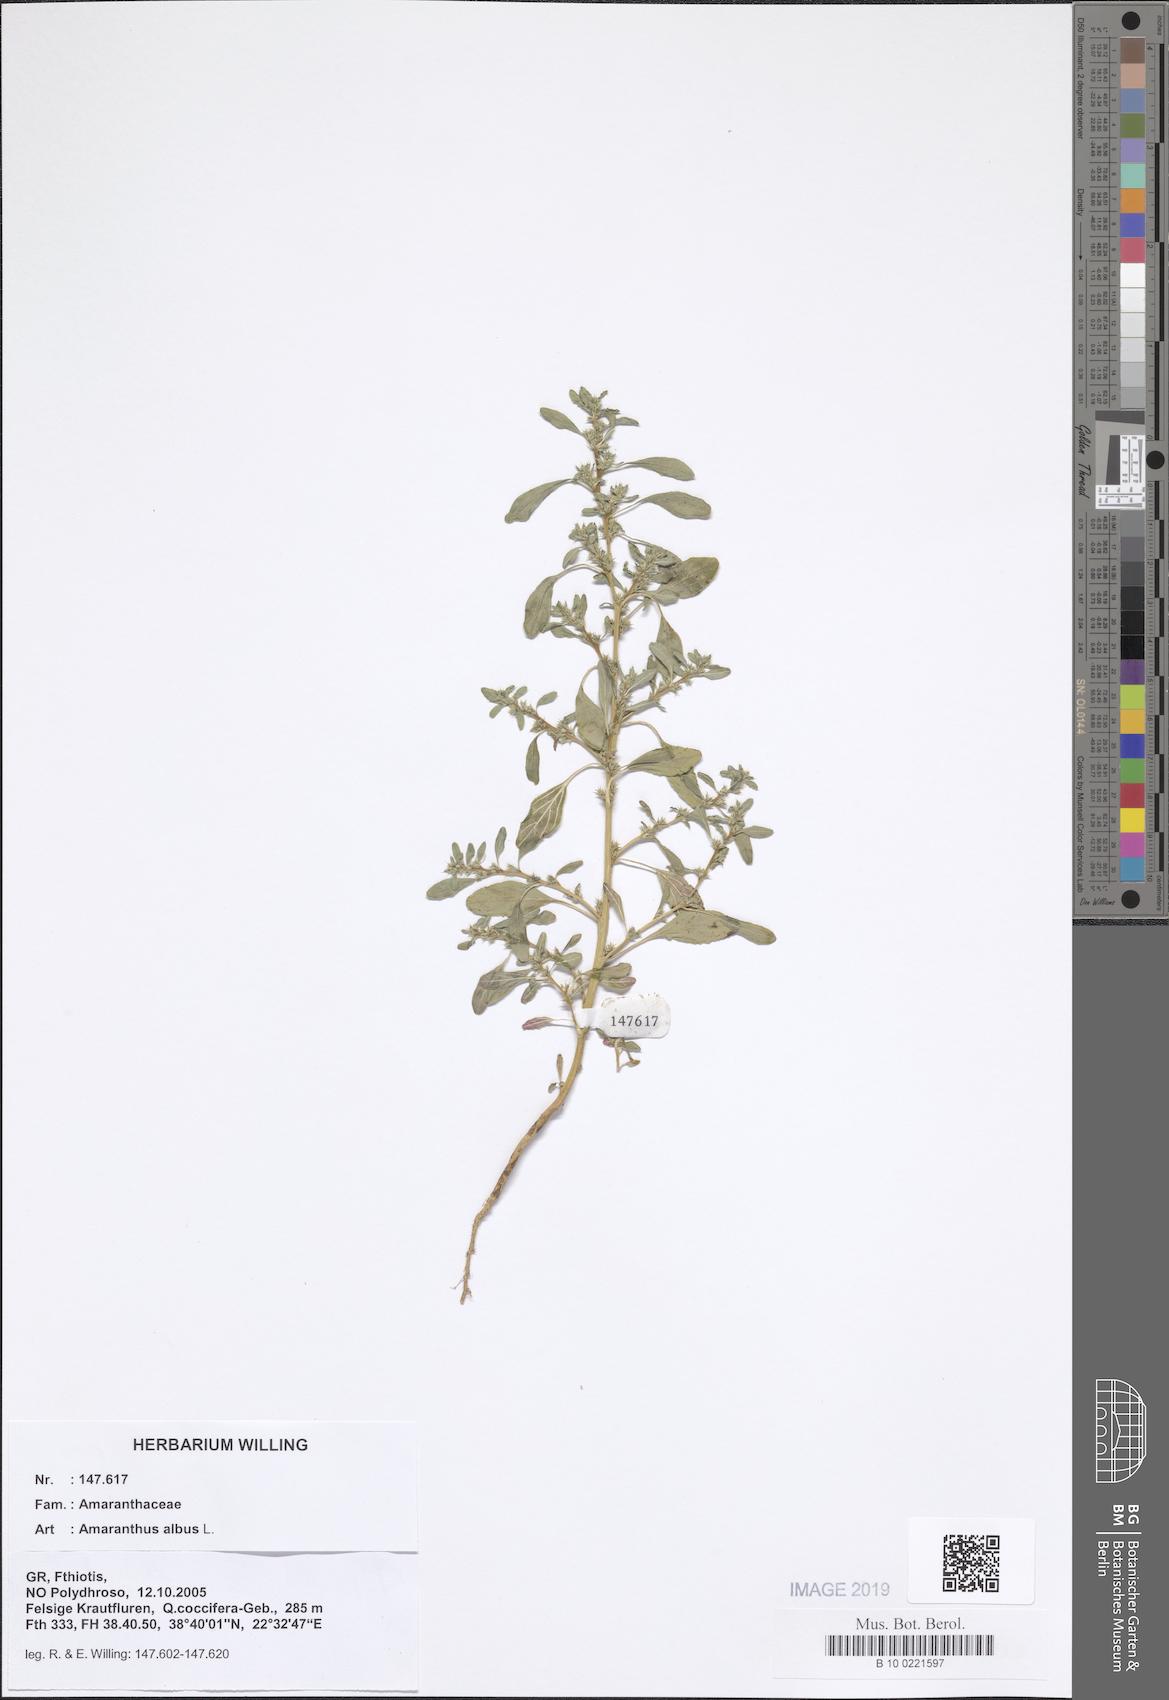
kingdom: Plantae
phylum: Tracheophyta
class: Magnoliopsida
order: Caryophyllales
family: Amaranthaceae
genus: Amaranthus
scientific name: Amaranthus albus
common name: White pigweed
